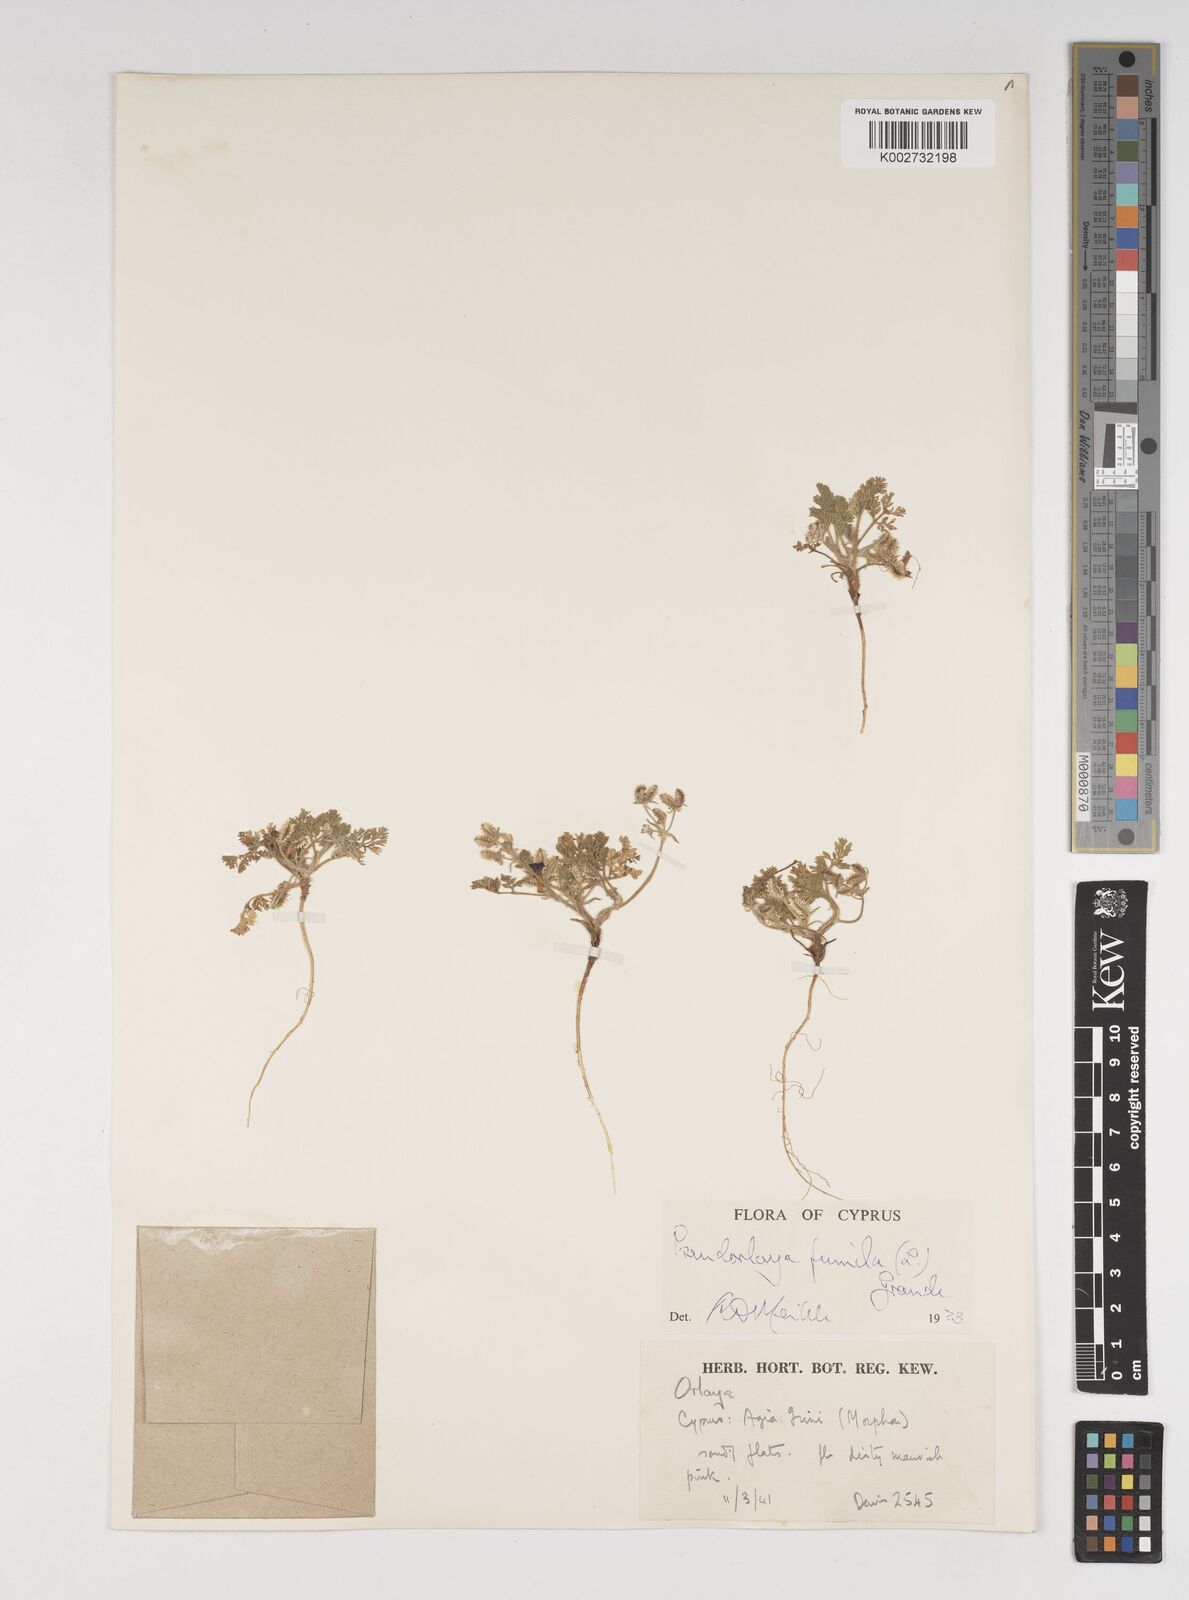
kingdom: Plantae
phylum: Tracheophyta
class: Magnoliopsida
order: Apiales
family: Apiaceae
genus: Daucus
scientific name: Daucus pumilus
